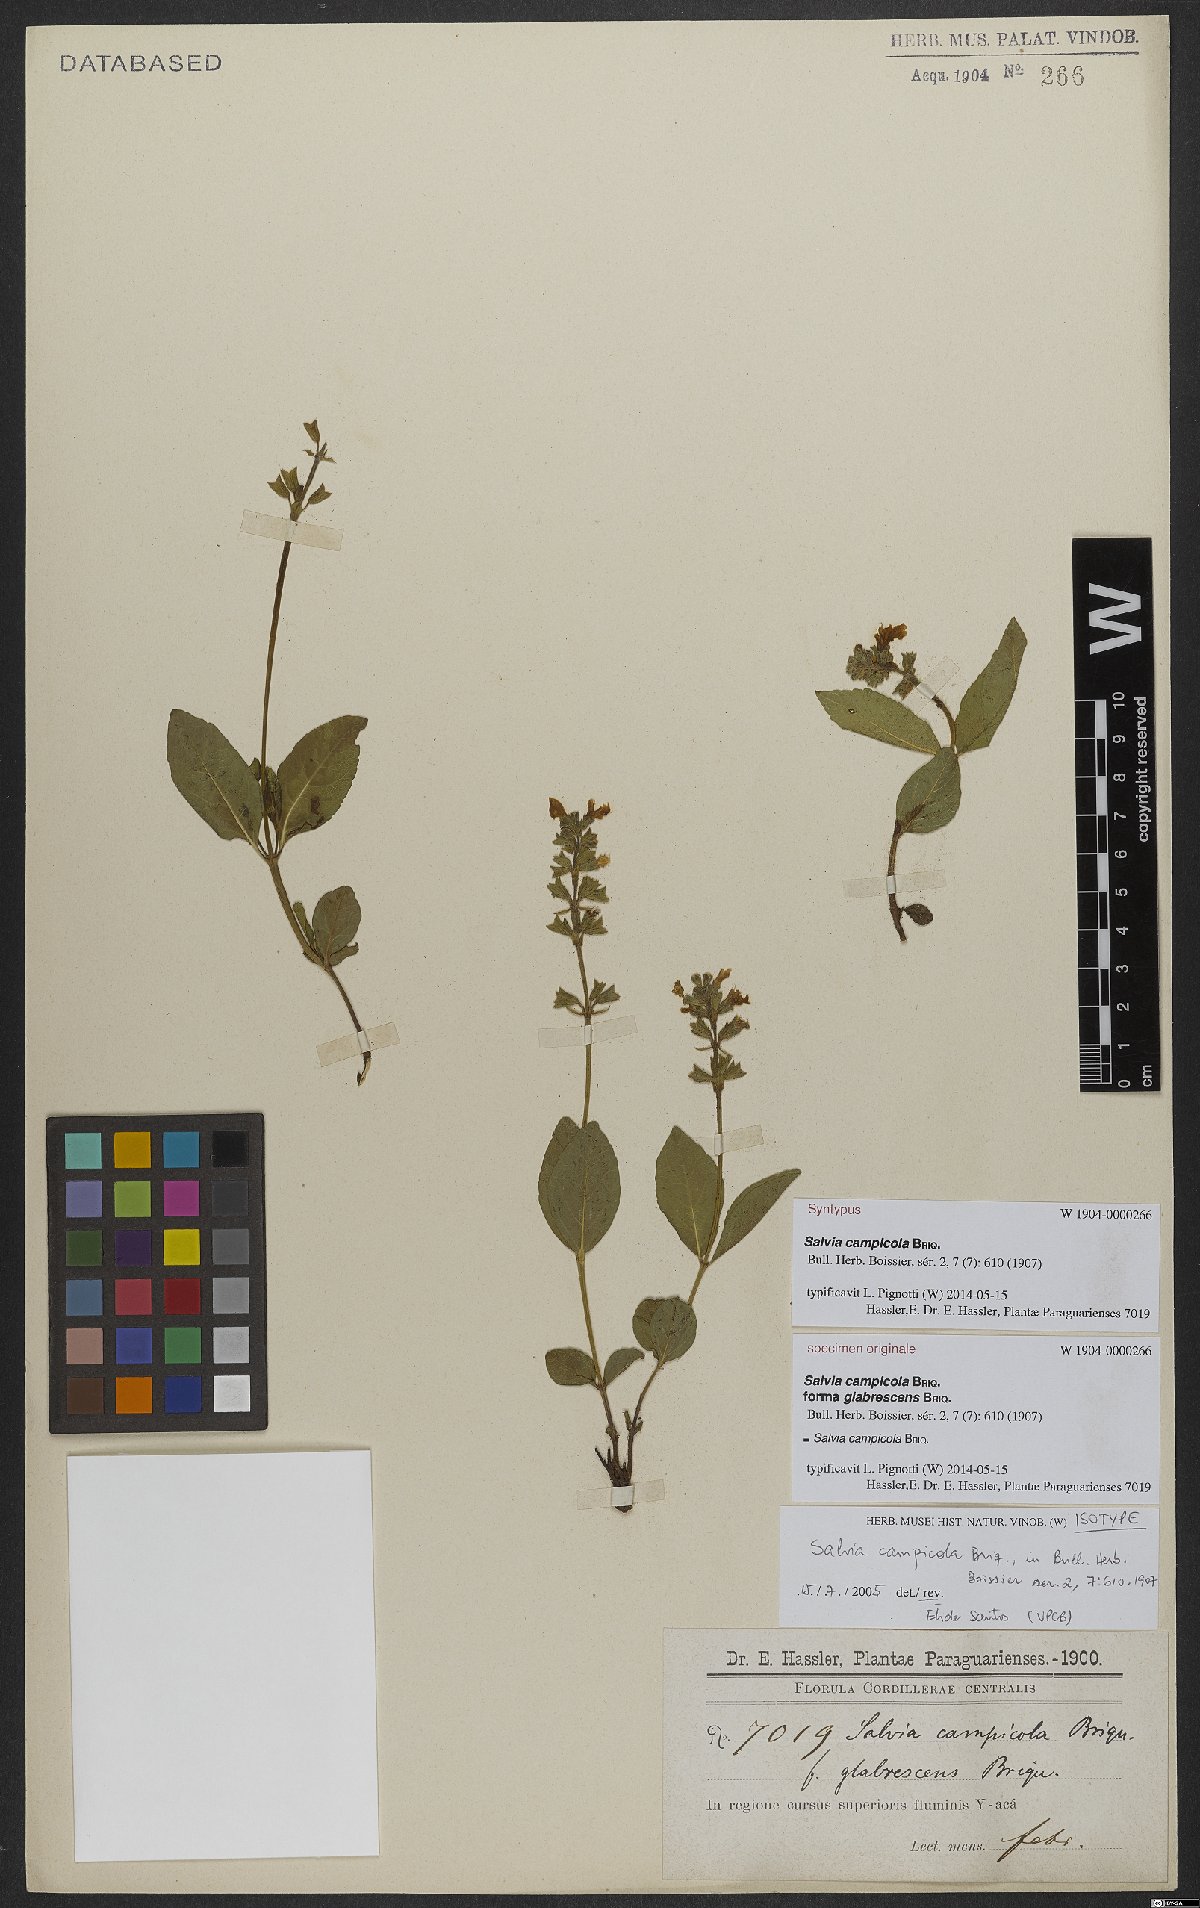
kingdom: Plantae
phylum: Tracheophyta
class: Magnoliopsida
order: Lamiales
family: Lamiaceae
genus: Salvia
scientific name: Salvia campicola
